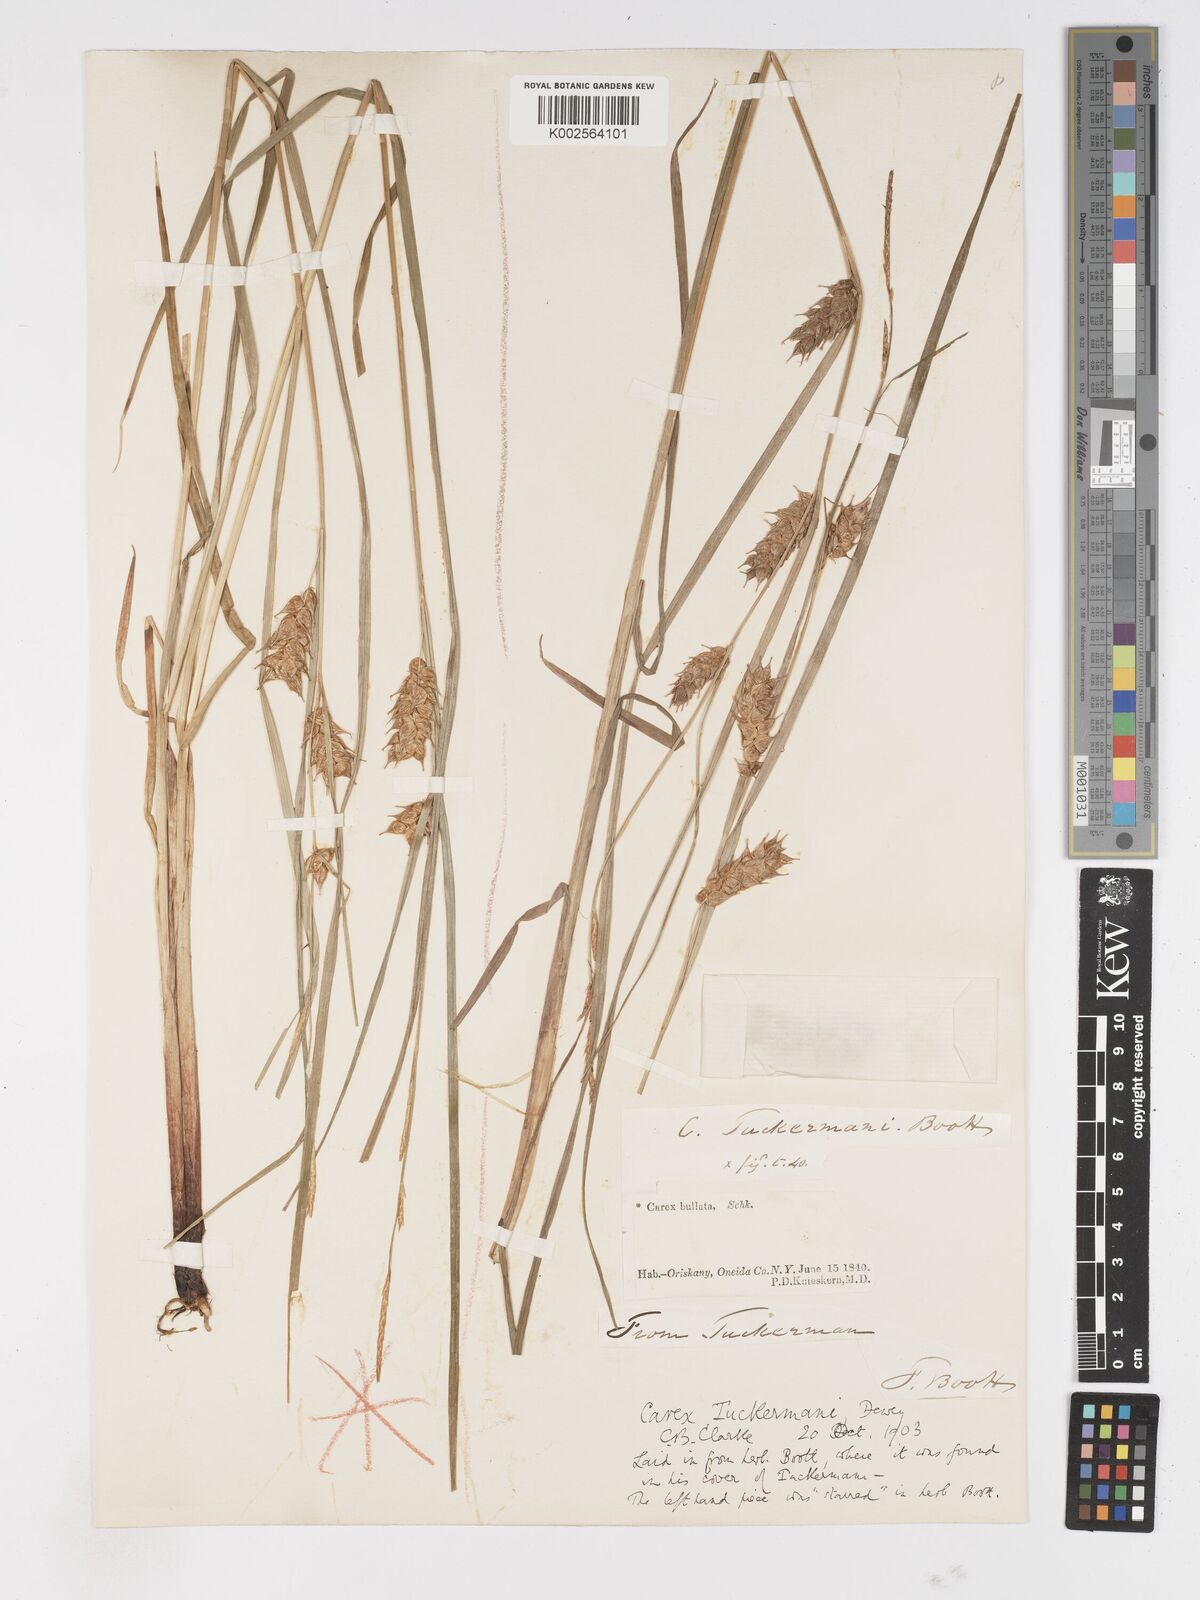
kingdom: Plantae
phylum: Tracheophyta
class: Liliopsida
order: Poales
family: Cyperaceae
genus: Carex
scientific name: Carex tuckermanii
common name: Tuckerman's sedge
